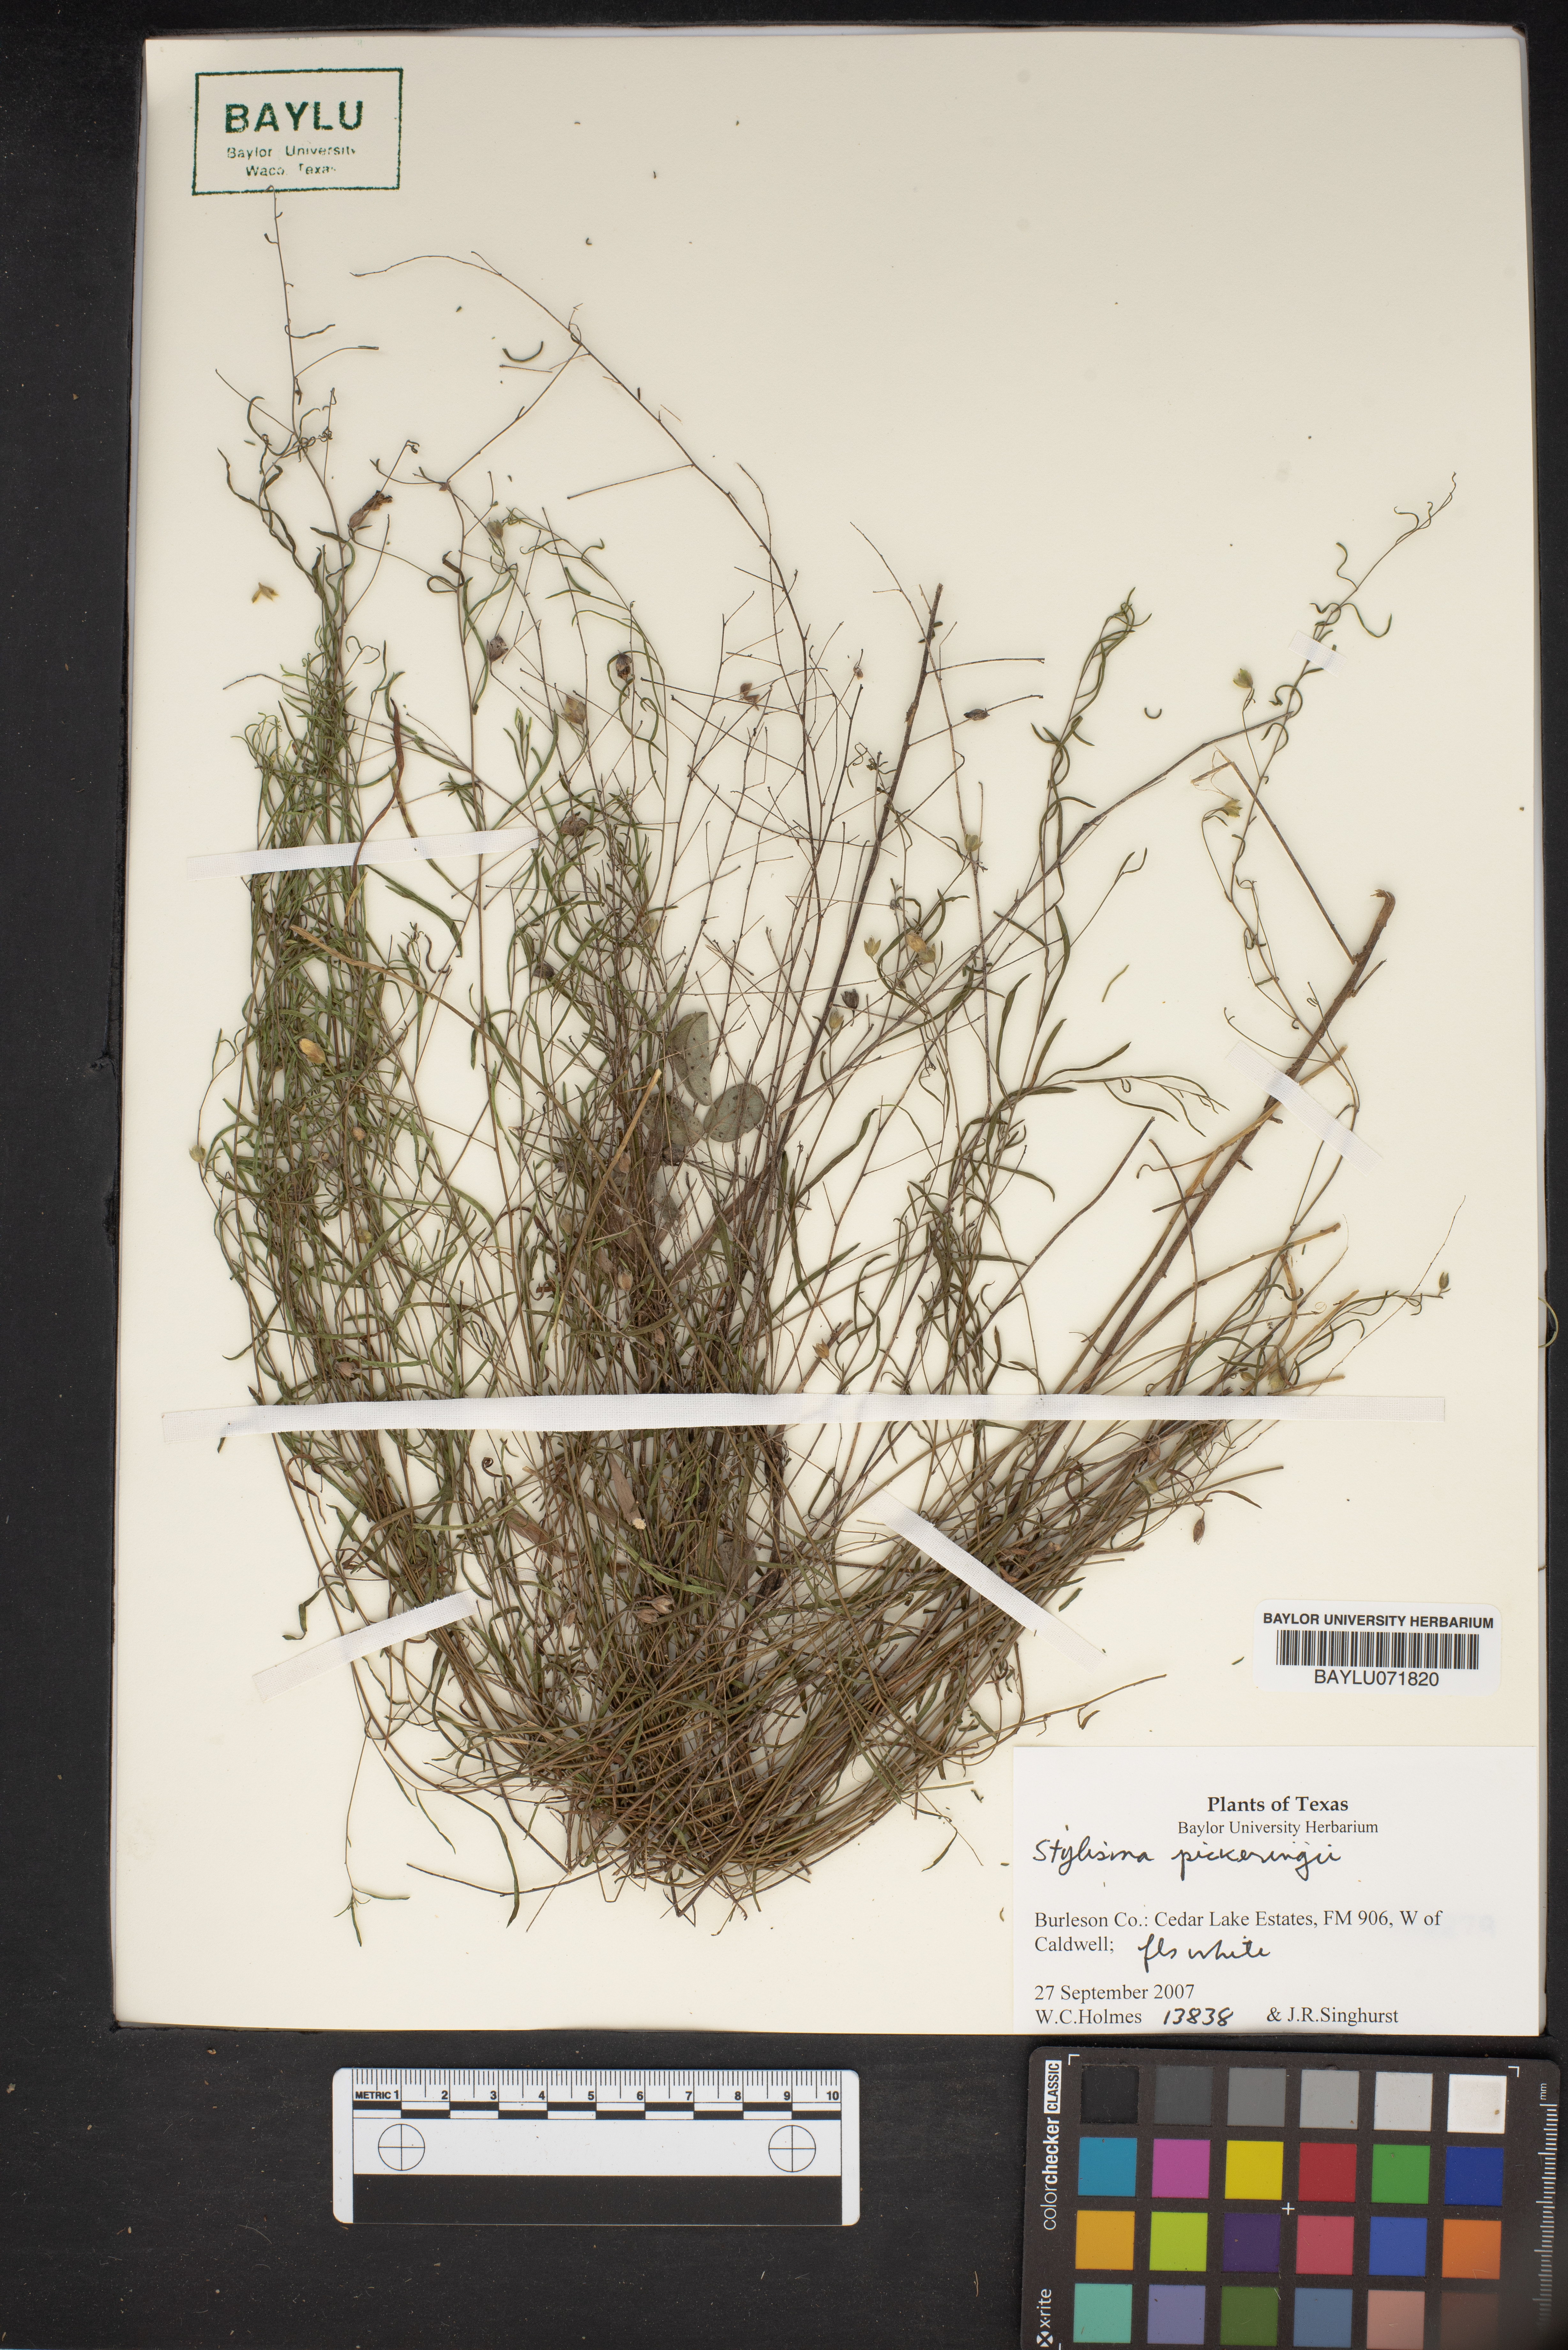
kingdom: Plantae
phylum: Tracheophyta
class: Magnoliopsida
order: Solanales
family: Convolvulaceae
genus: Stylisma
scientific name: Stylisma pickeringii
